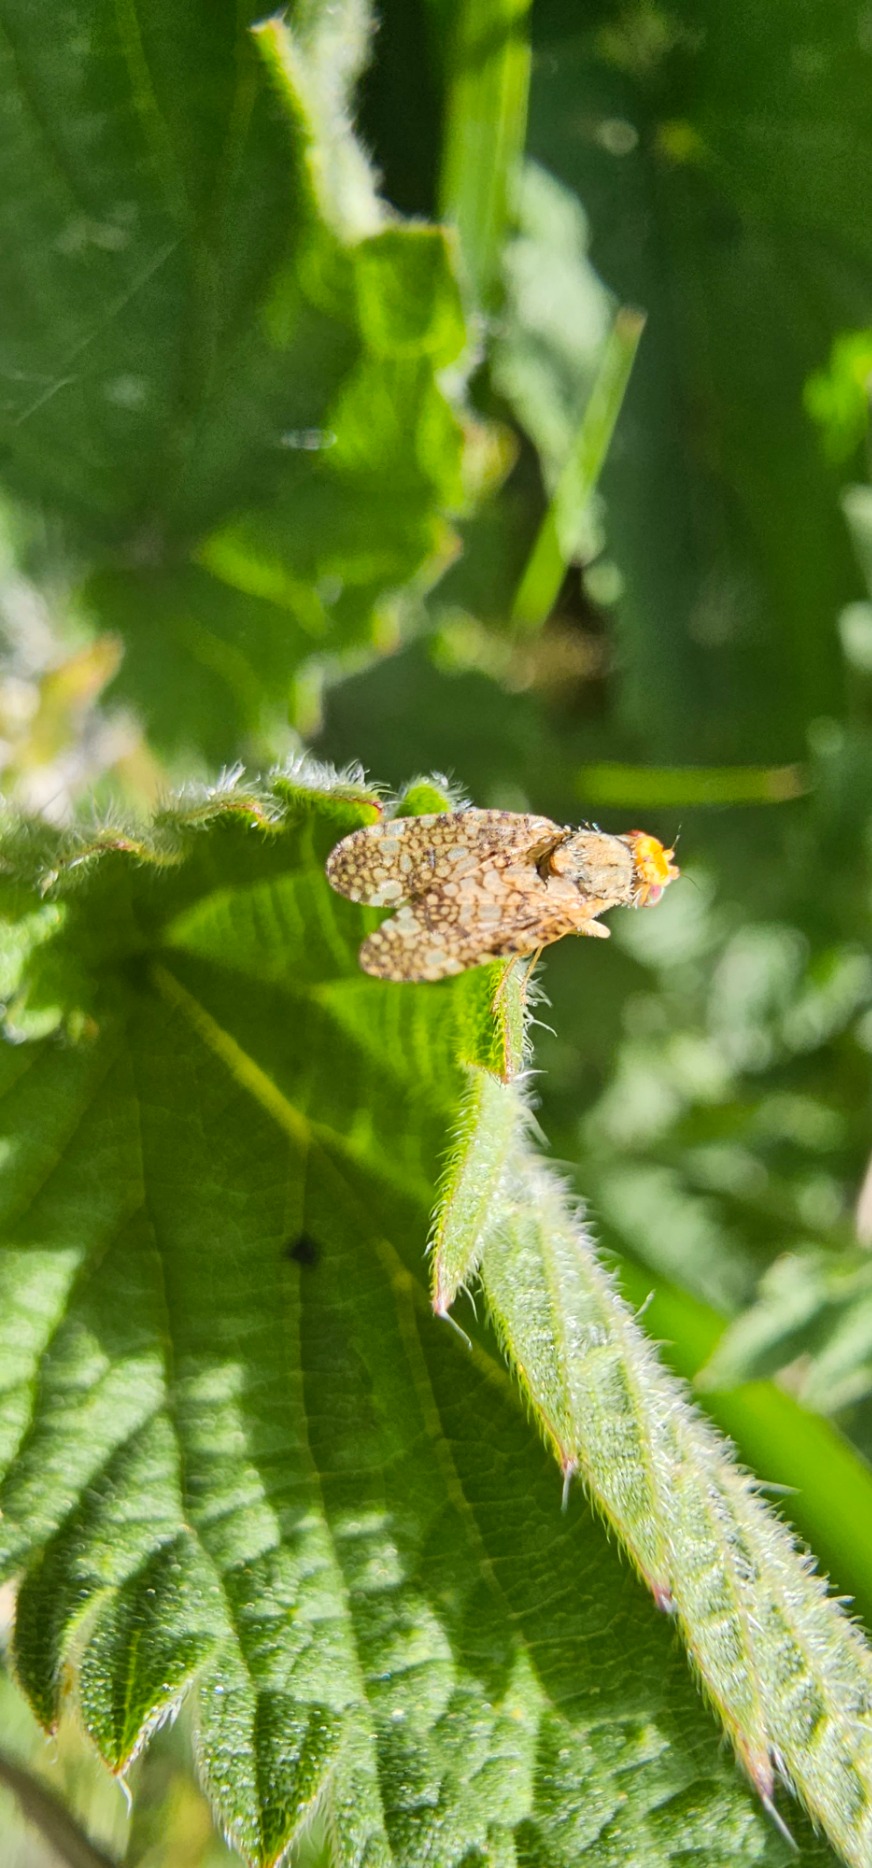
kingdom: Animalia
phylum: Arthropoda
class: Insecta
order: Diptera
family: Tephritidae
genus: Oxyna
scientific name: Oxyna parietina
